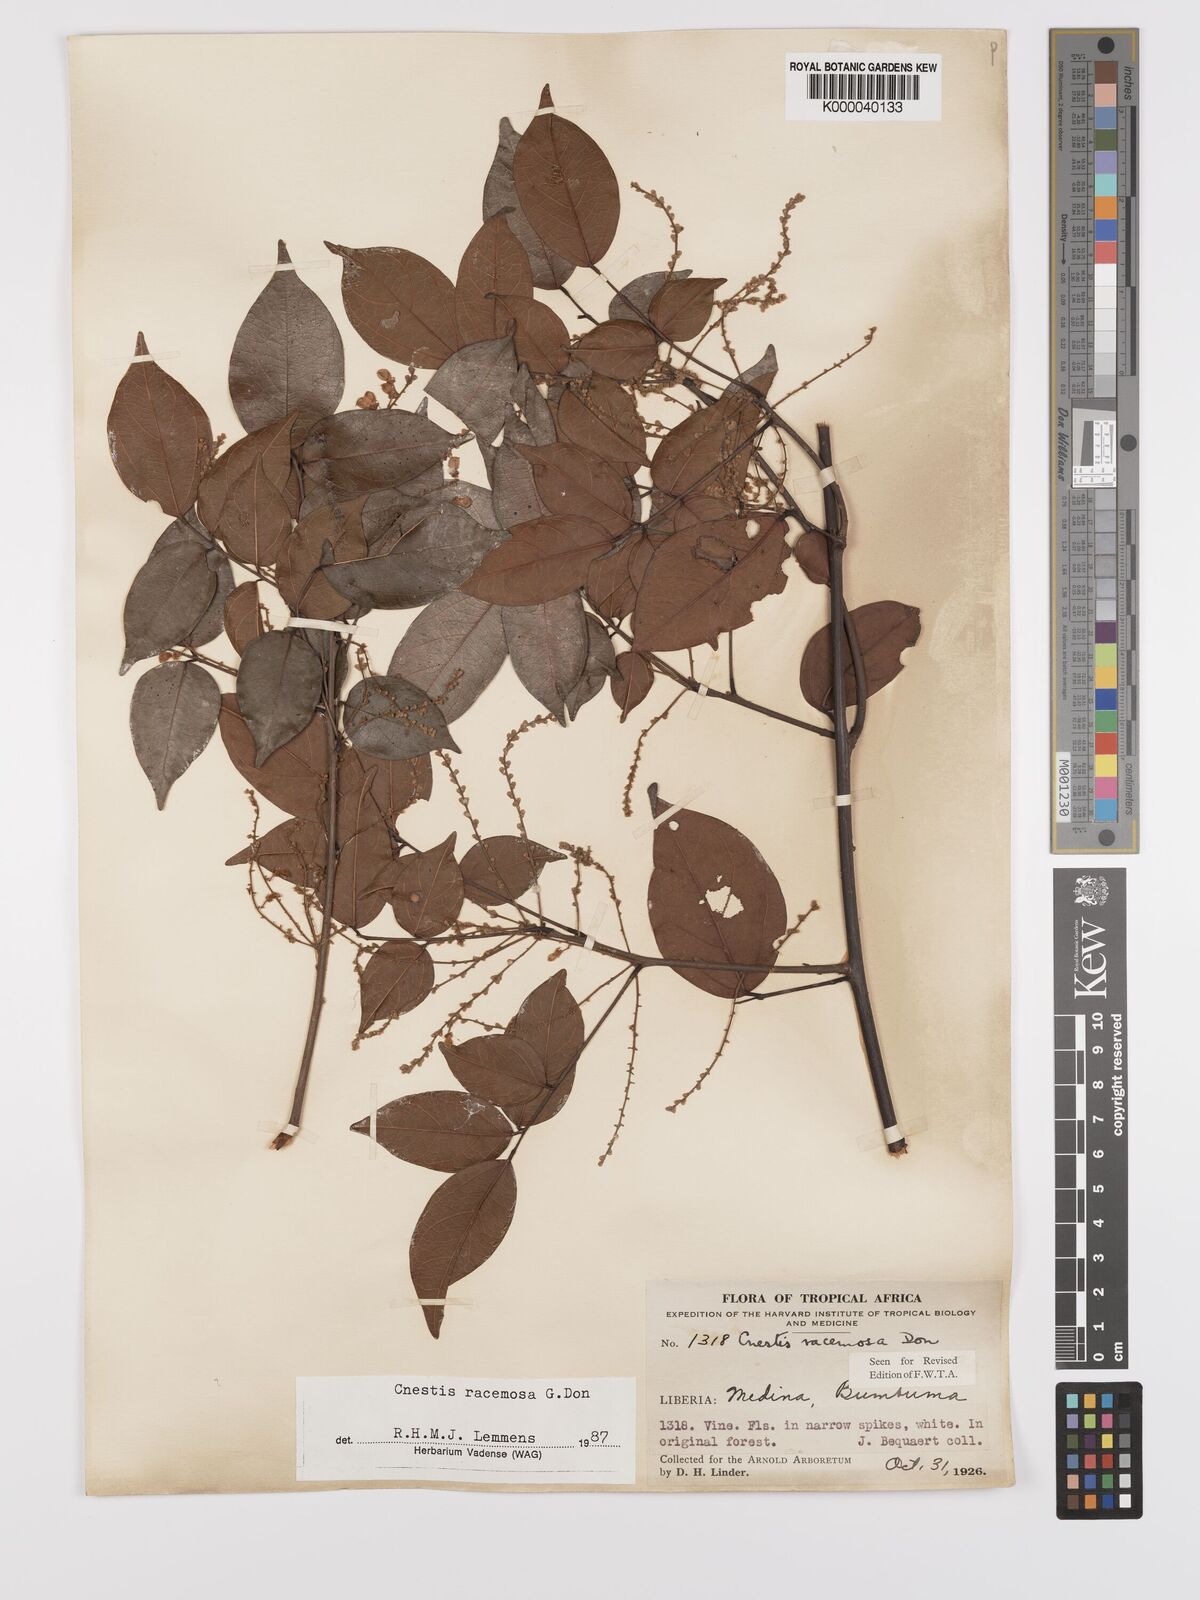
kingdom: Plantae
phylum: Tracheophyta
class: Magnoliopsida
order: Oxalidales
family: Connaraceae
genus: Cnestis
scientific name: Cnestis racemosa
